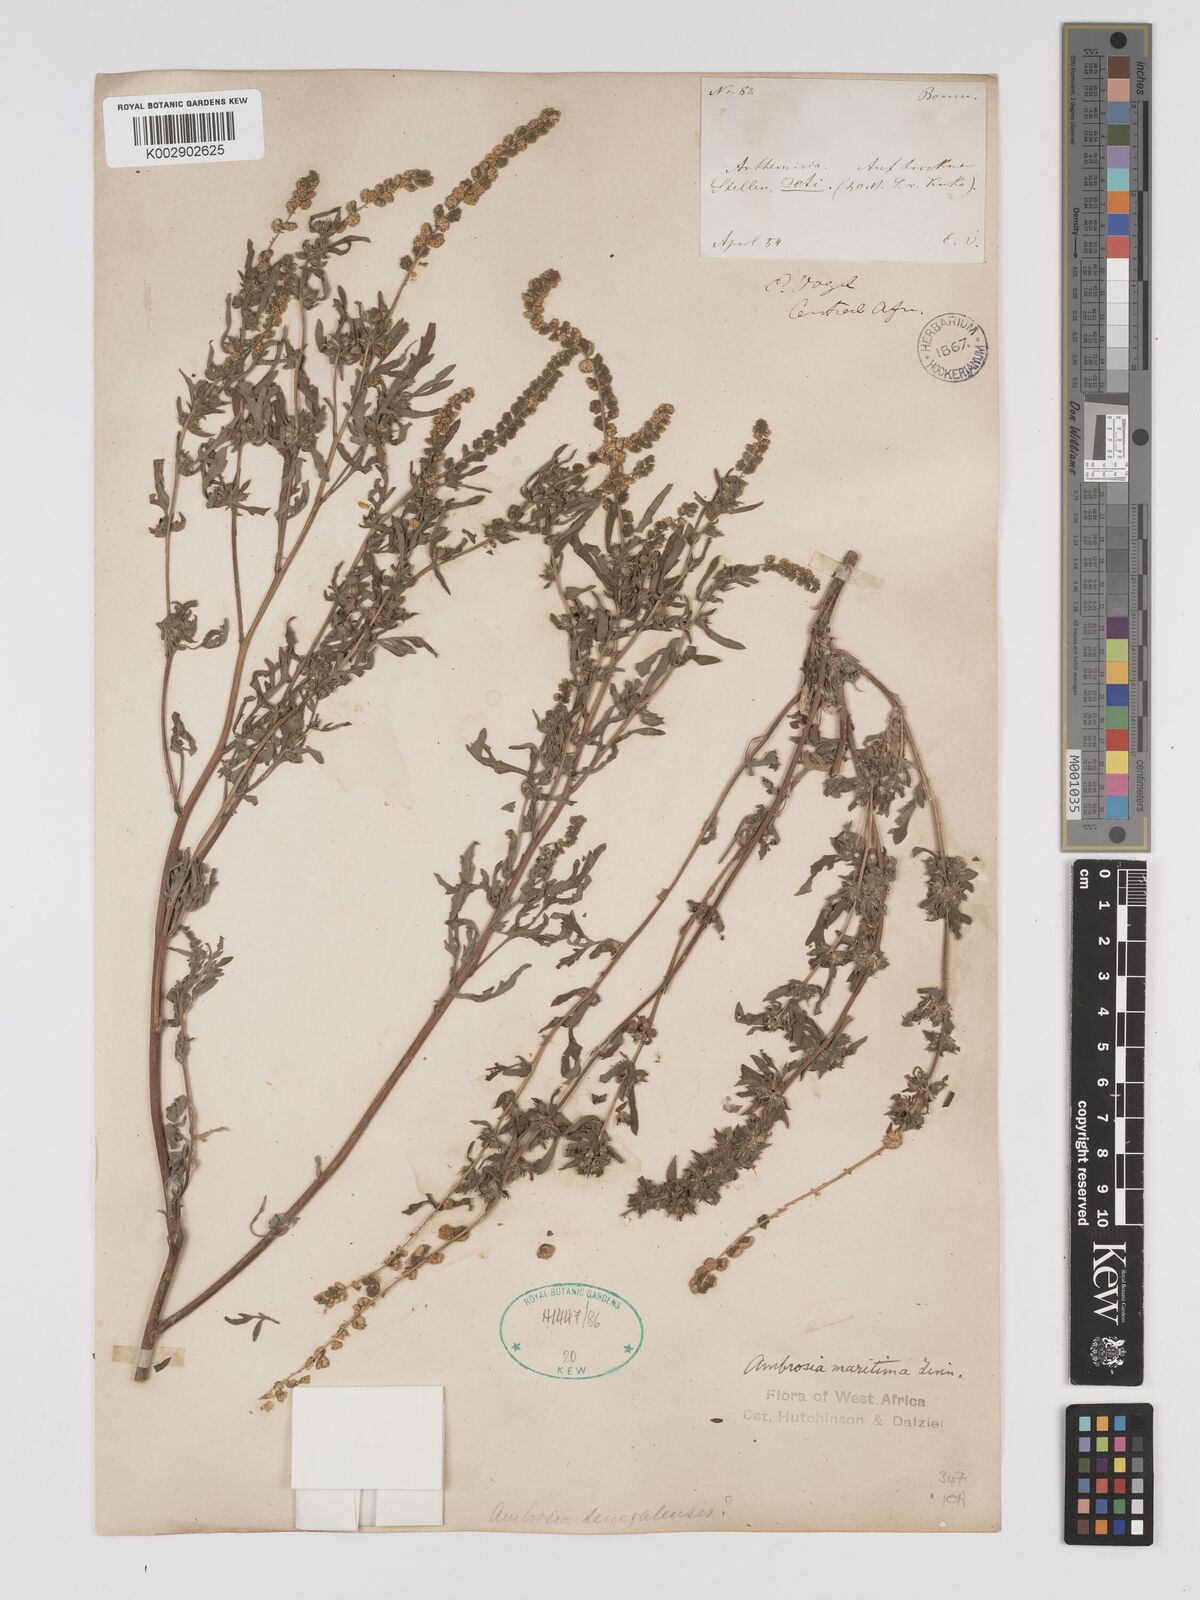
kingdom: Plantae
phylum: Tracheophyta
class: Magnoliopsida
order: Asterales
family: Asteraceae
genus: Ambrosia
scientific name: Ambrosia maritima
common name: Sea ambrosia
